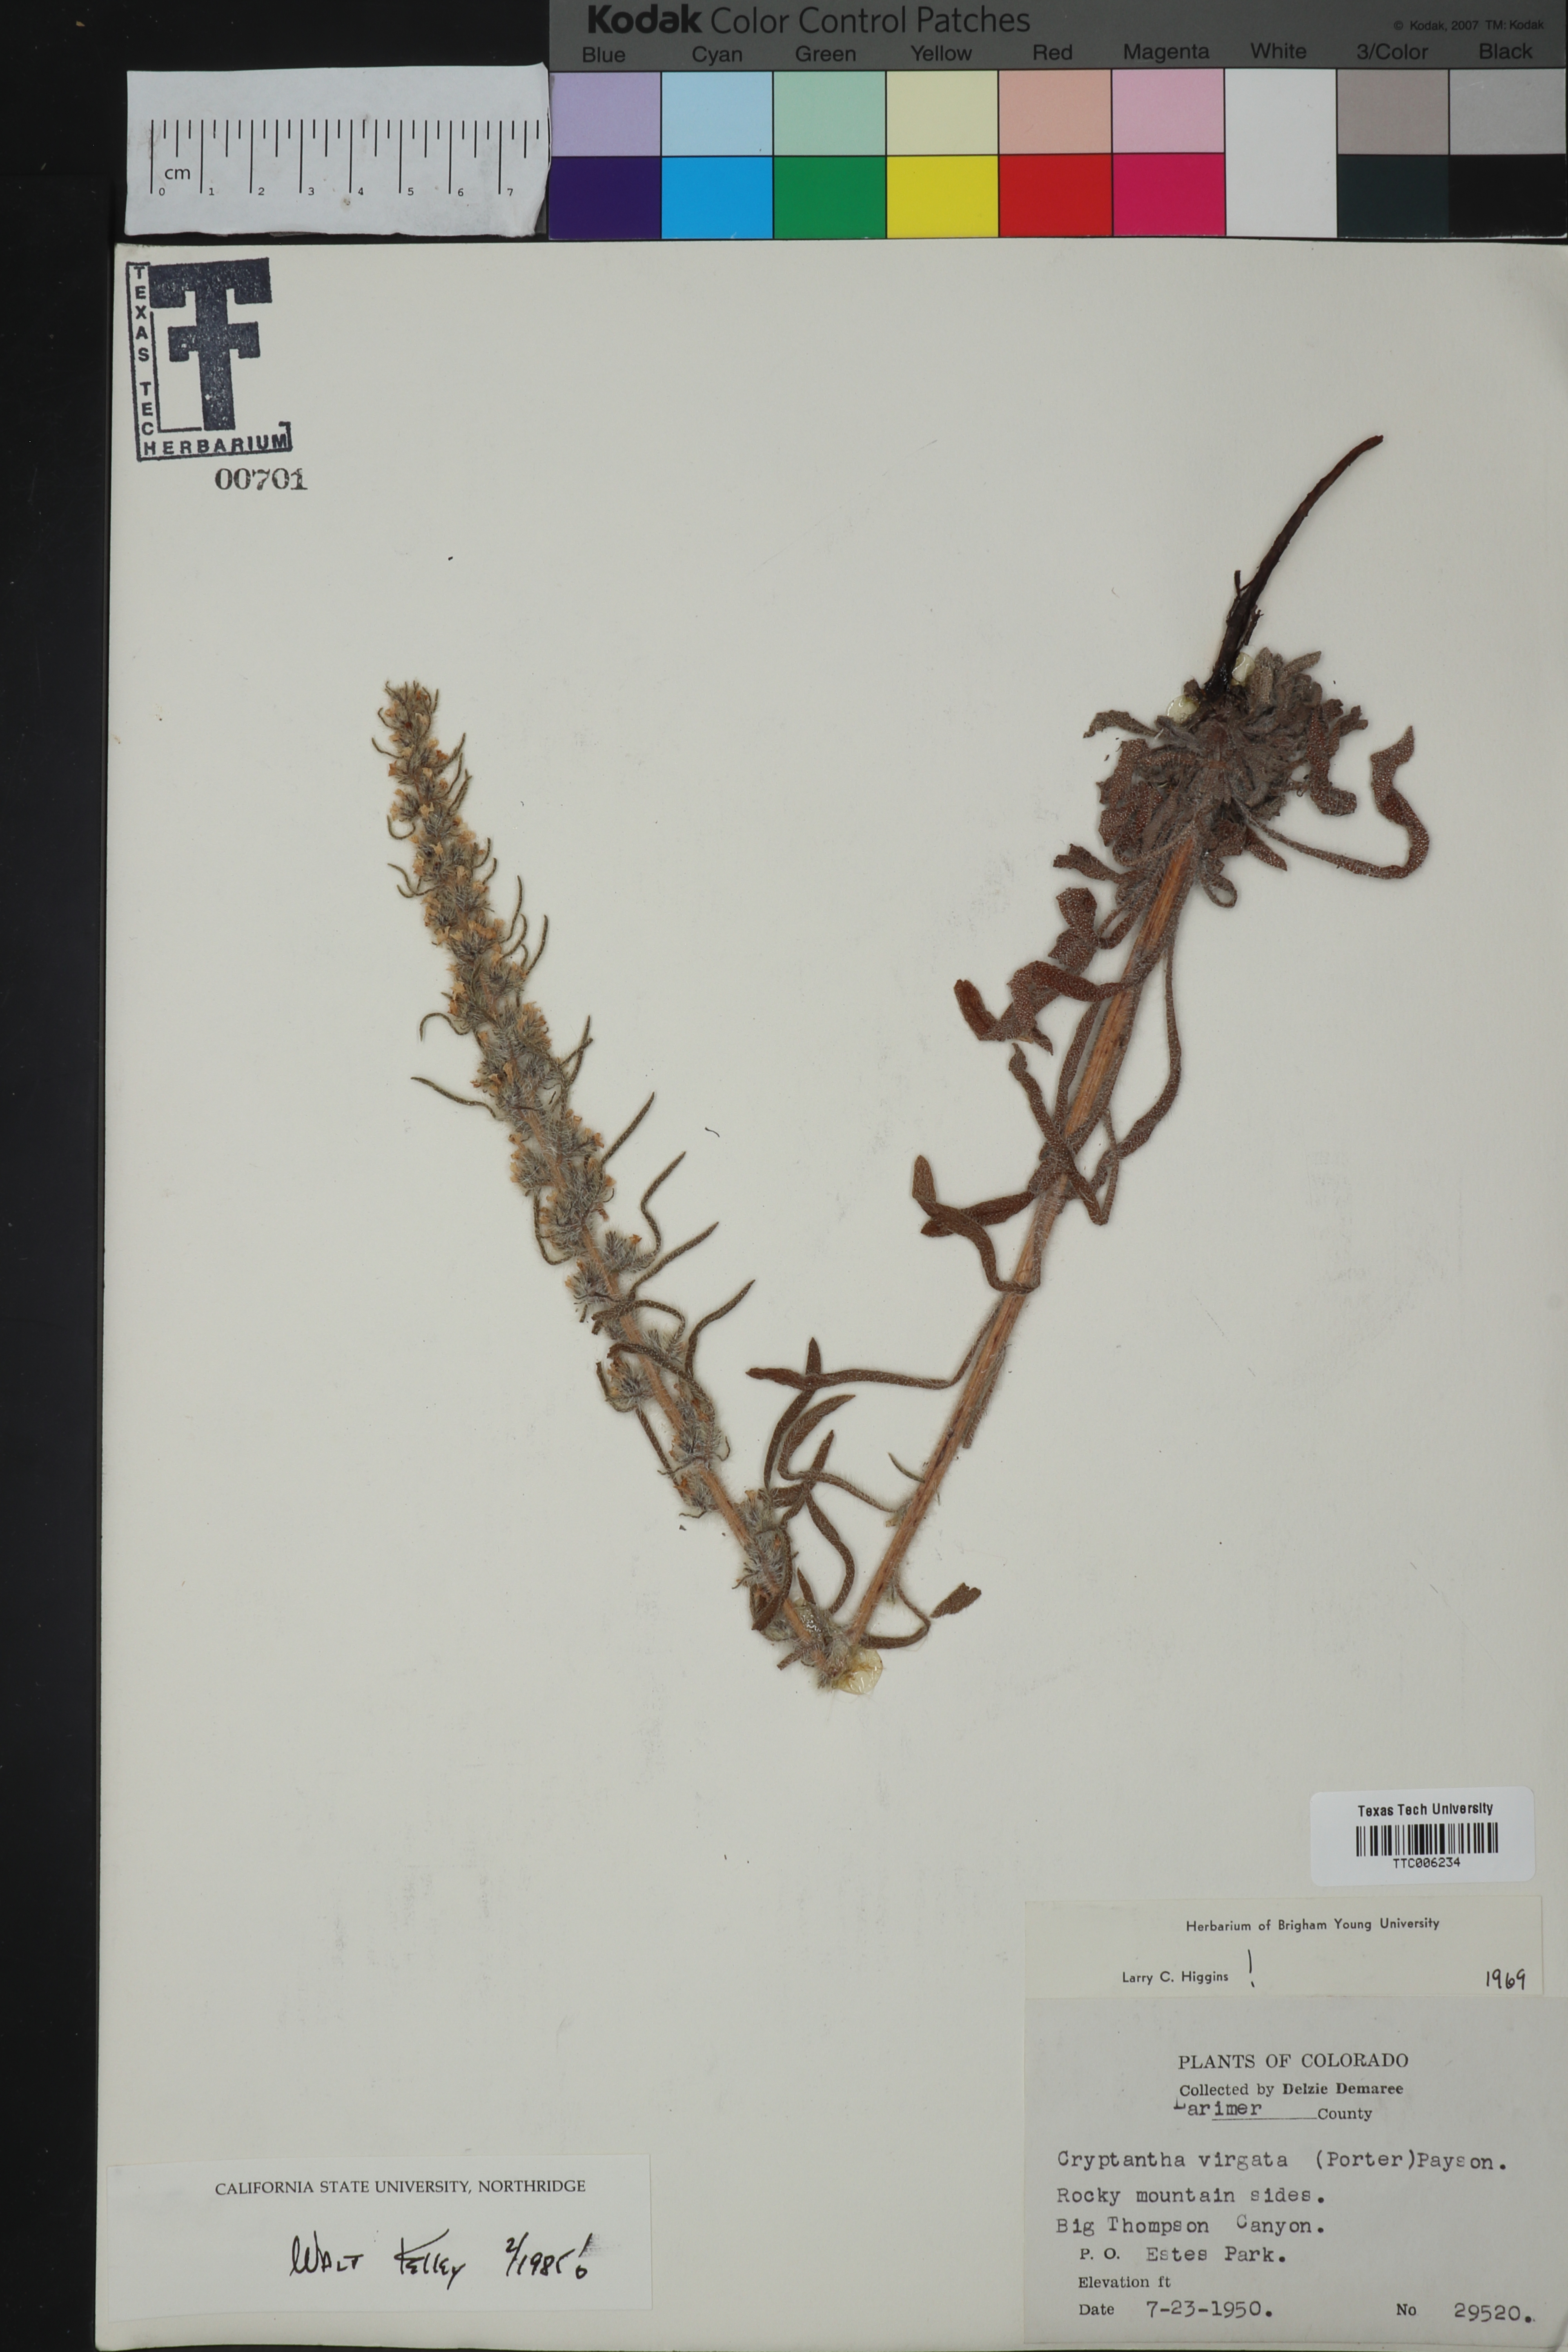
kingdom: Plantae
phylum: Tracheophyta
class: Magnoliopsida
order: Boraginales
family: Boraginaceae
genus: Oreocarya
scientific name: Oreocarya virgata
